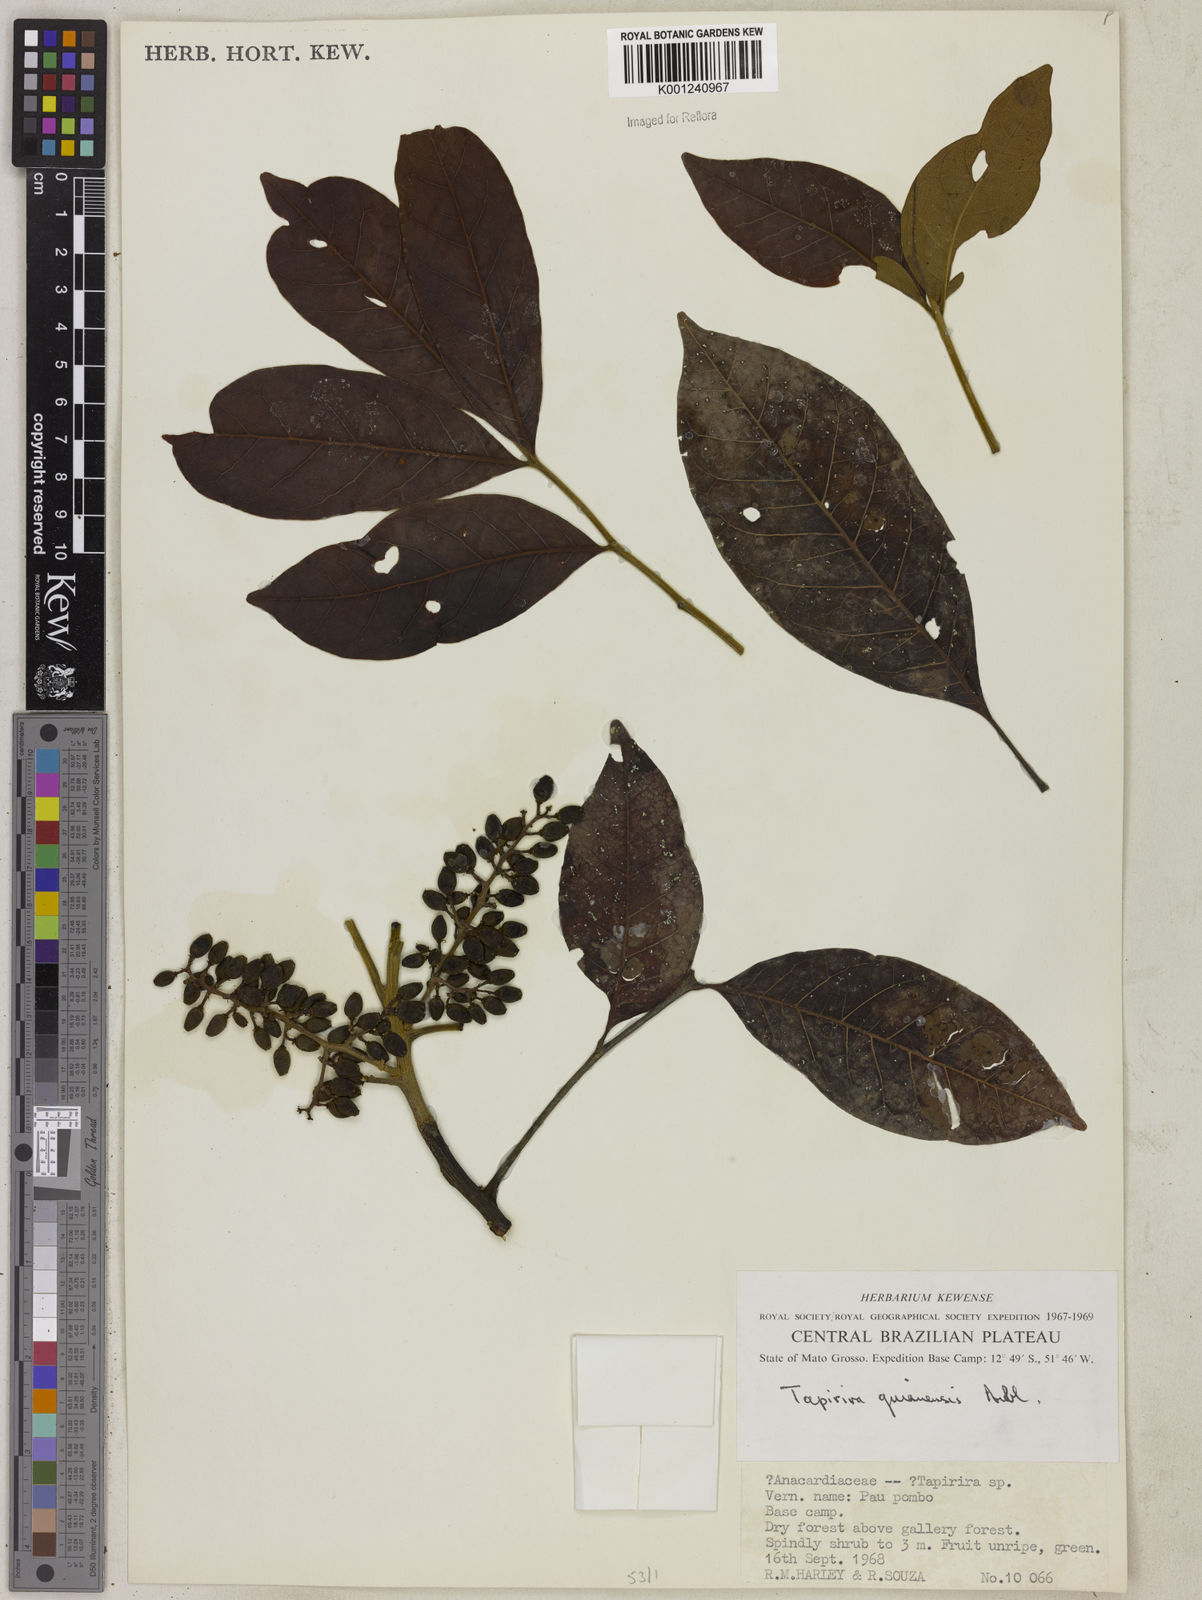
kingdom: Plantae
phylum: Tracheophyta
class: Magnoliopsida
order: Sapindales
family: Anacardiaceae
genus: Tapirira
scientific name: Tapirira guianensis
